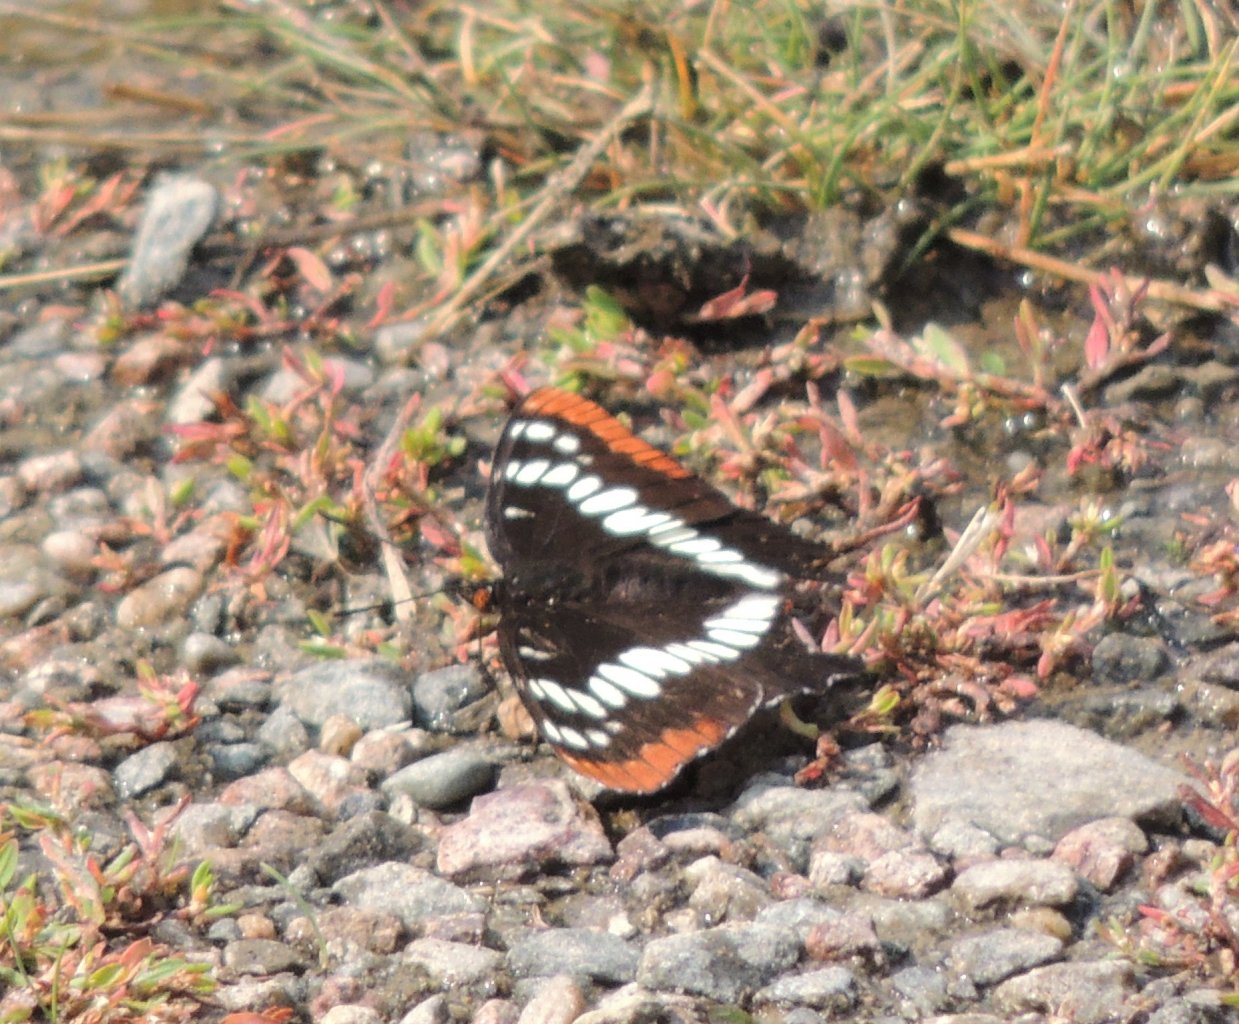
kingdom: Animalia
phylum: Arthropoda
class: Insecta
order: Lepidoptera
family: Nymphalidae
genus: Limenitis
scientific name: Limenitis lorquini
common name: Lorquin's Admiral
